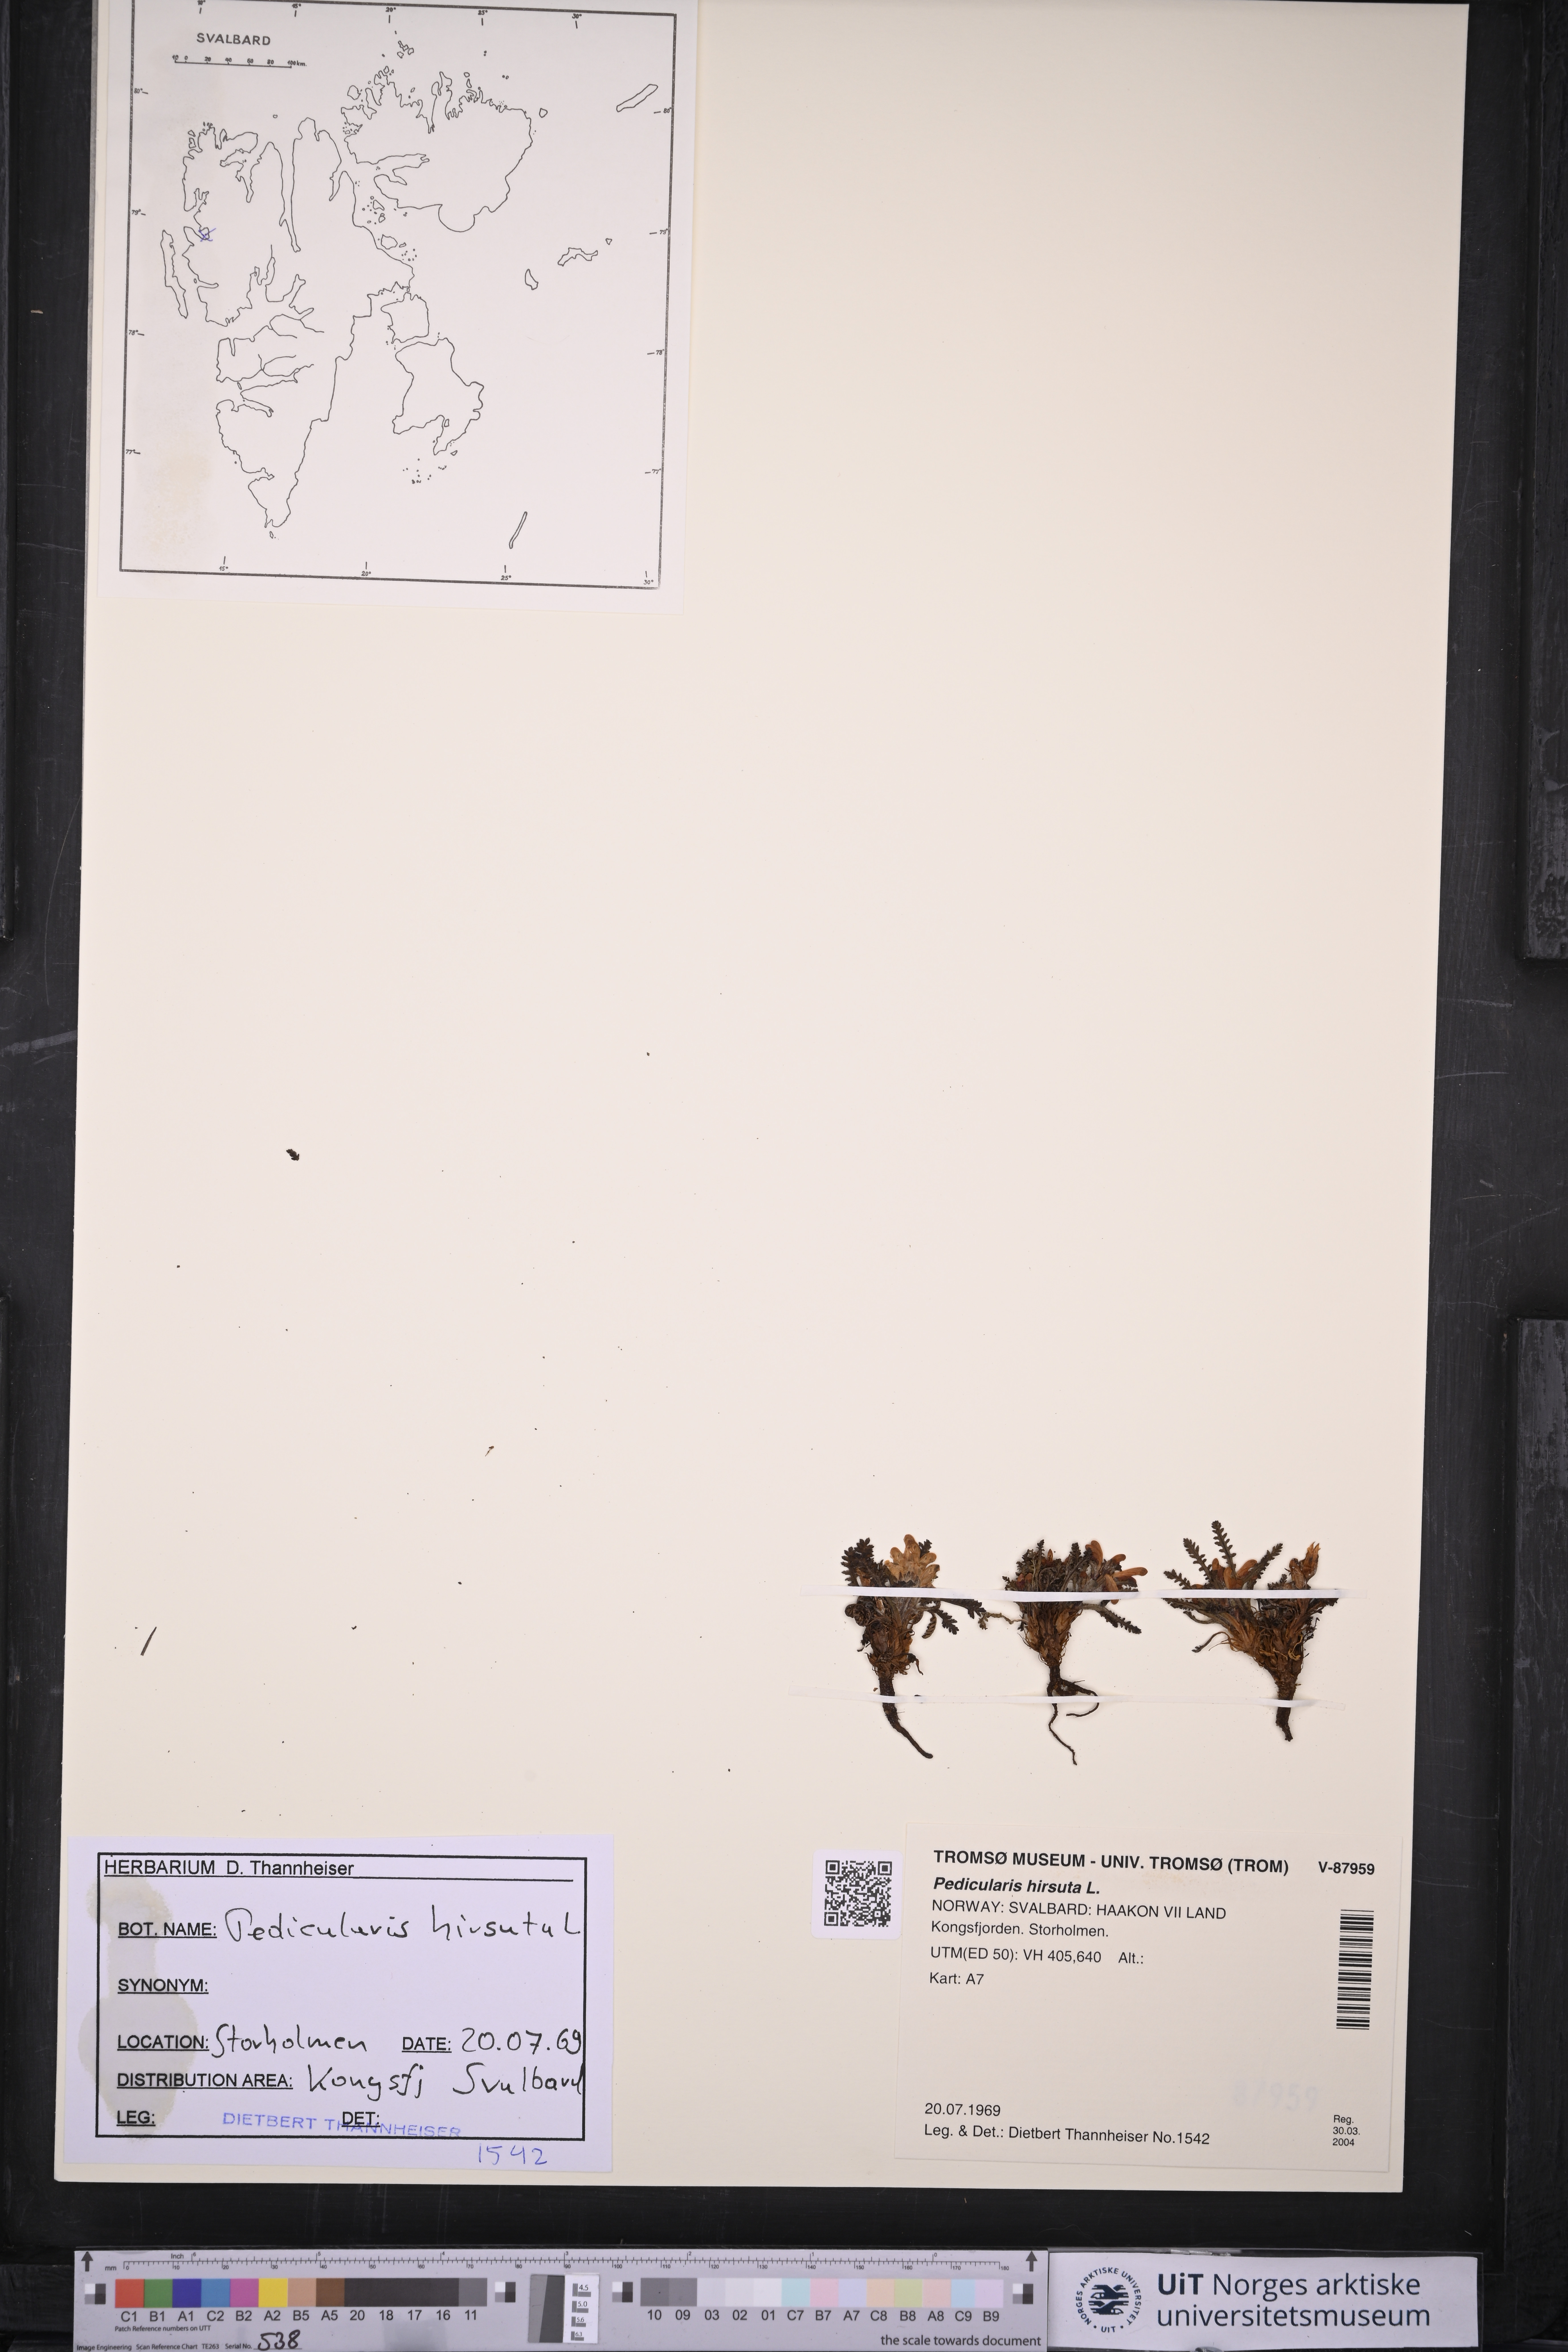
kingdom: Plantae
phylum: Tracheophyta
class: Magnoliopsida
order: Lamiales
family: Orobanchaceae
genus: Pedicularis
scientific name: Pedicularis hirsuta
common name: Hairy lousewort
